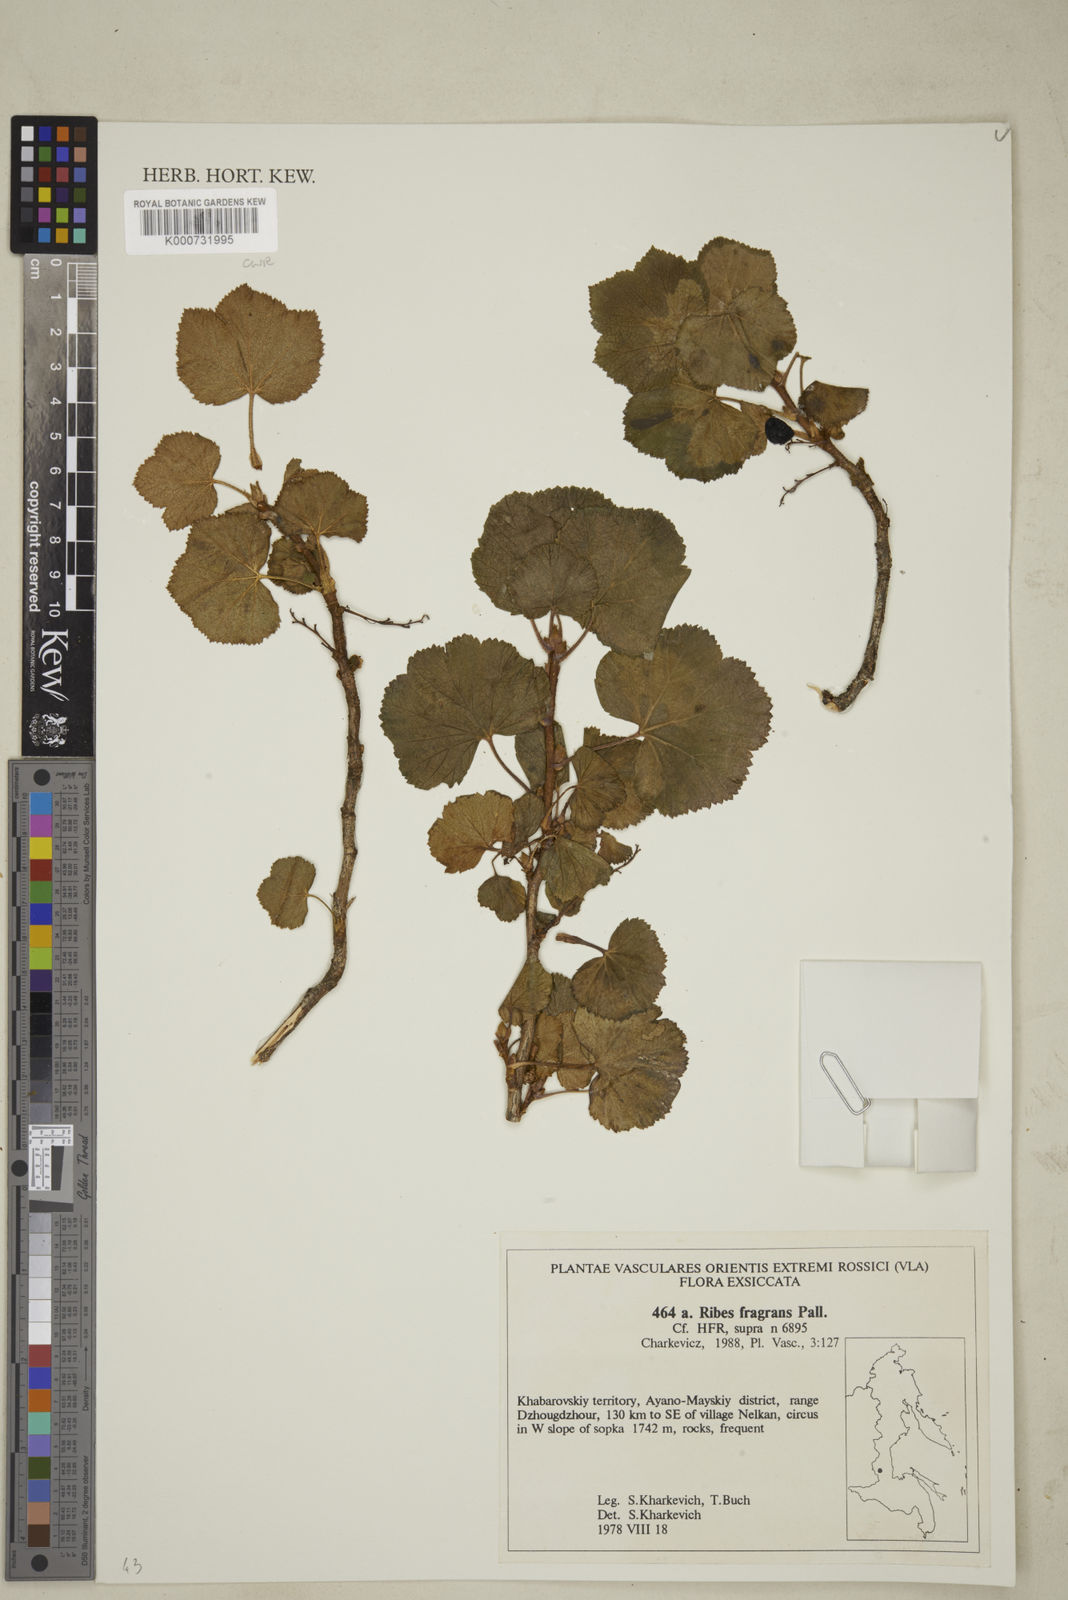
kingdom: Plantae
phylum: Tracheophyta
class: Magnoliopsida
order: Saxifragales
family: Grossulariaceae
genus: Ribes
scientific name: Ribes fragrans
